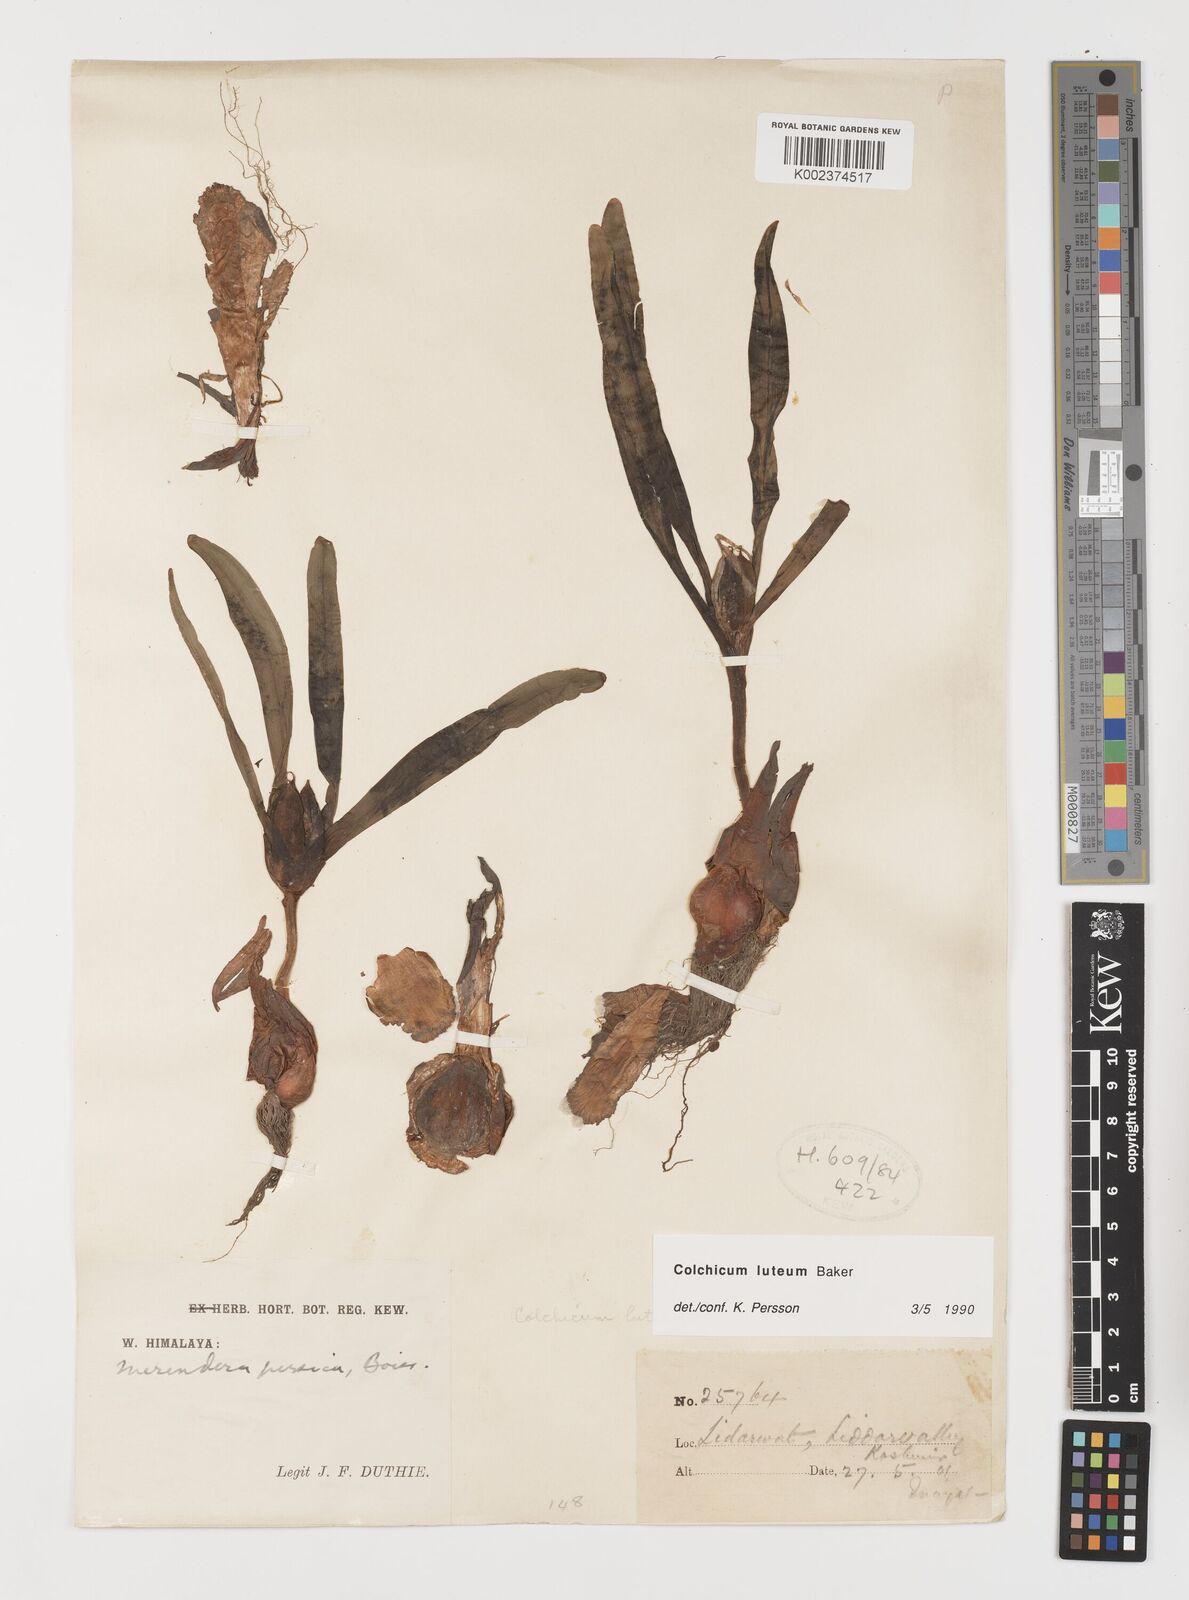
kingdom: Plantae
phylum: Tracheophyta
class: Liliopsida
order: Liliales
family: Colchicaceae
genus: Colchicum
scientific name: Colchicum luteum
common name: Indian colchicum
